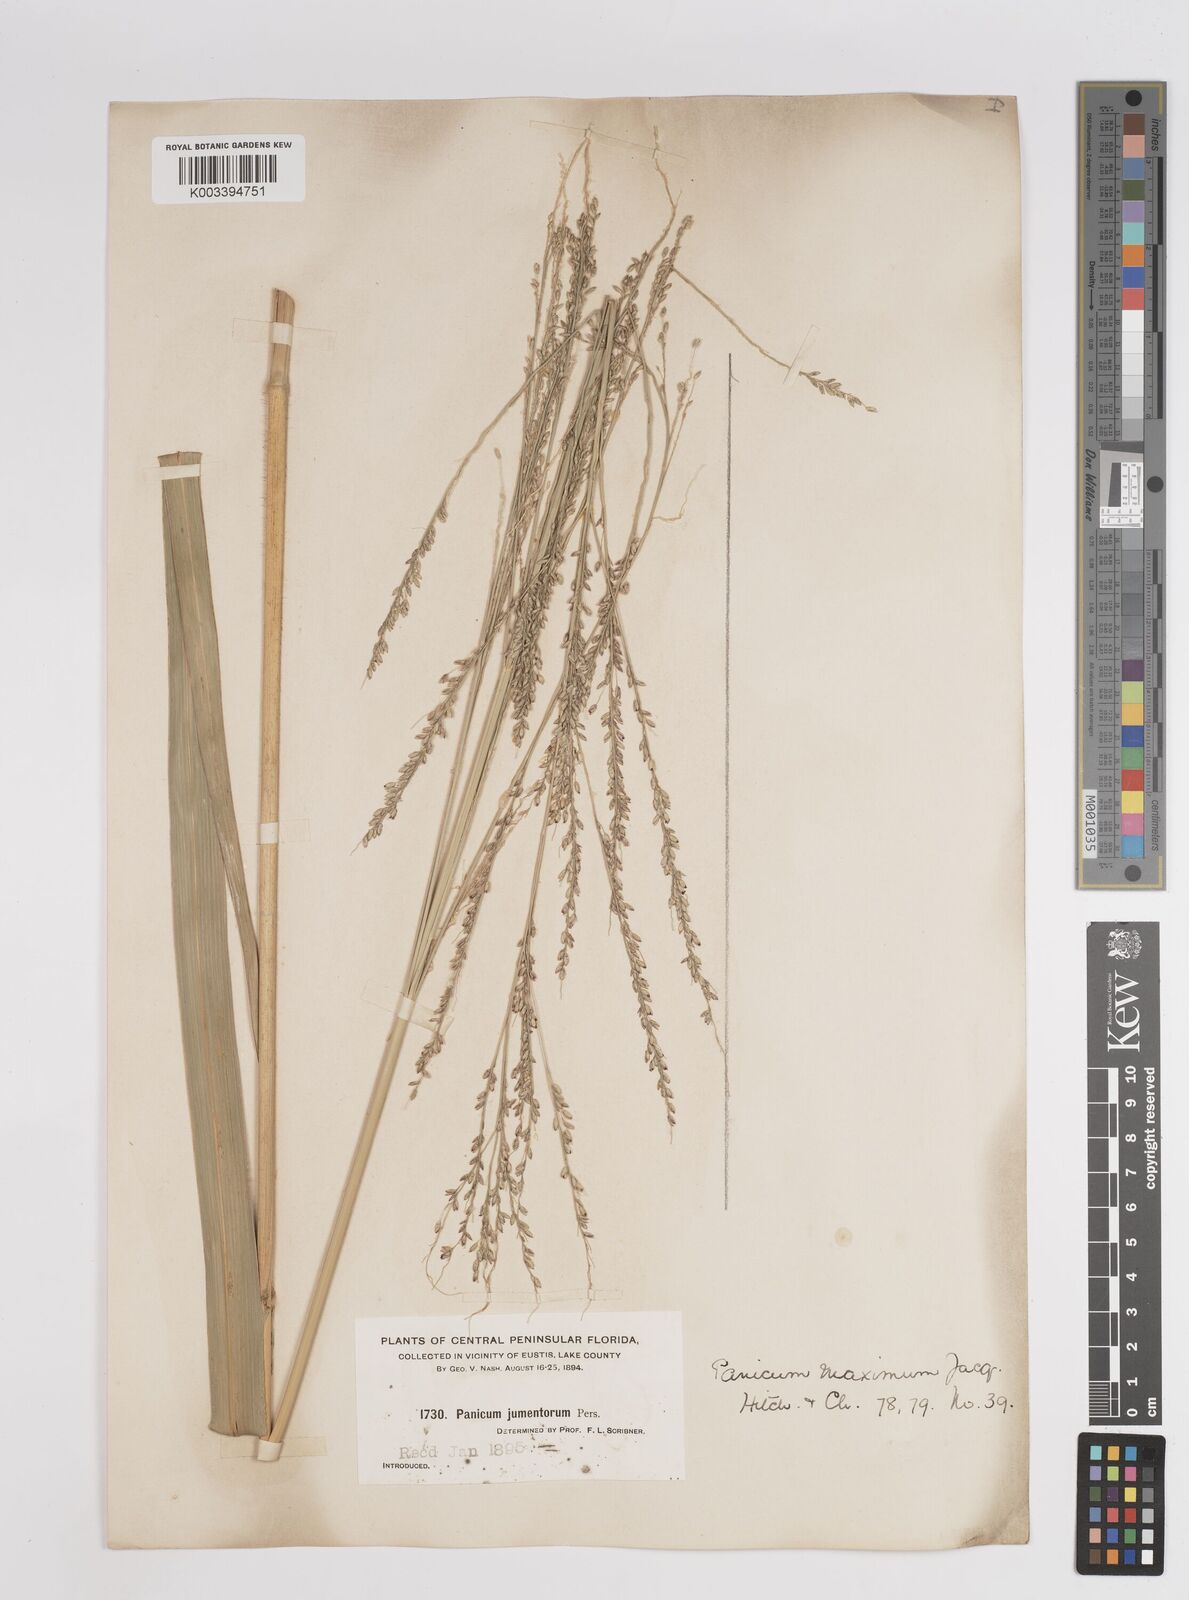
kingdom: Plantae
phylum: Tracheophyta
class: Liliopsida
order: Poales
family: Poaceae
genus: Megathyrsus
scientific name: Megathyrsus maximus
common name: Guineagrass
